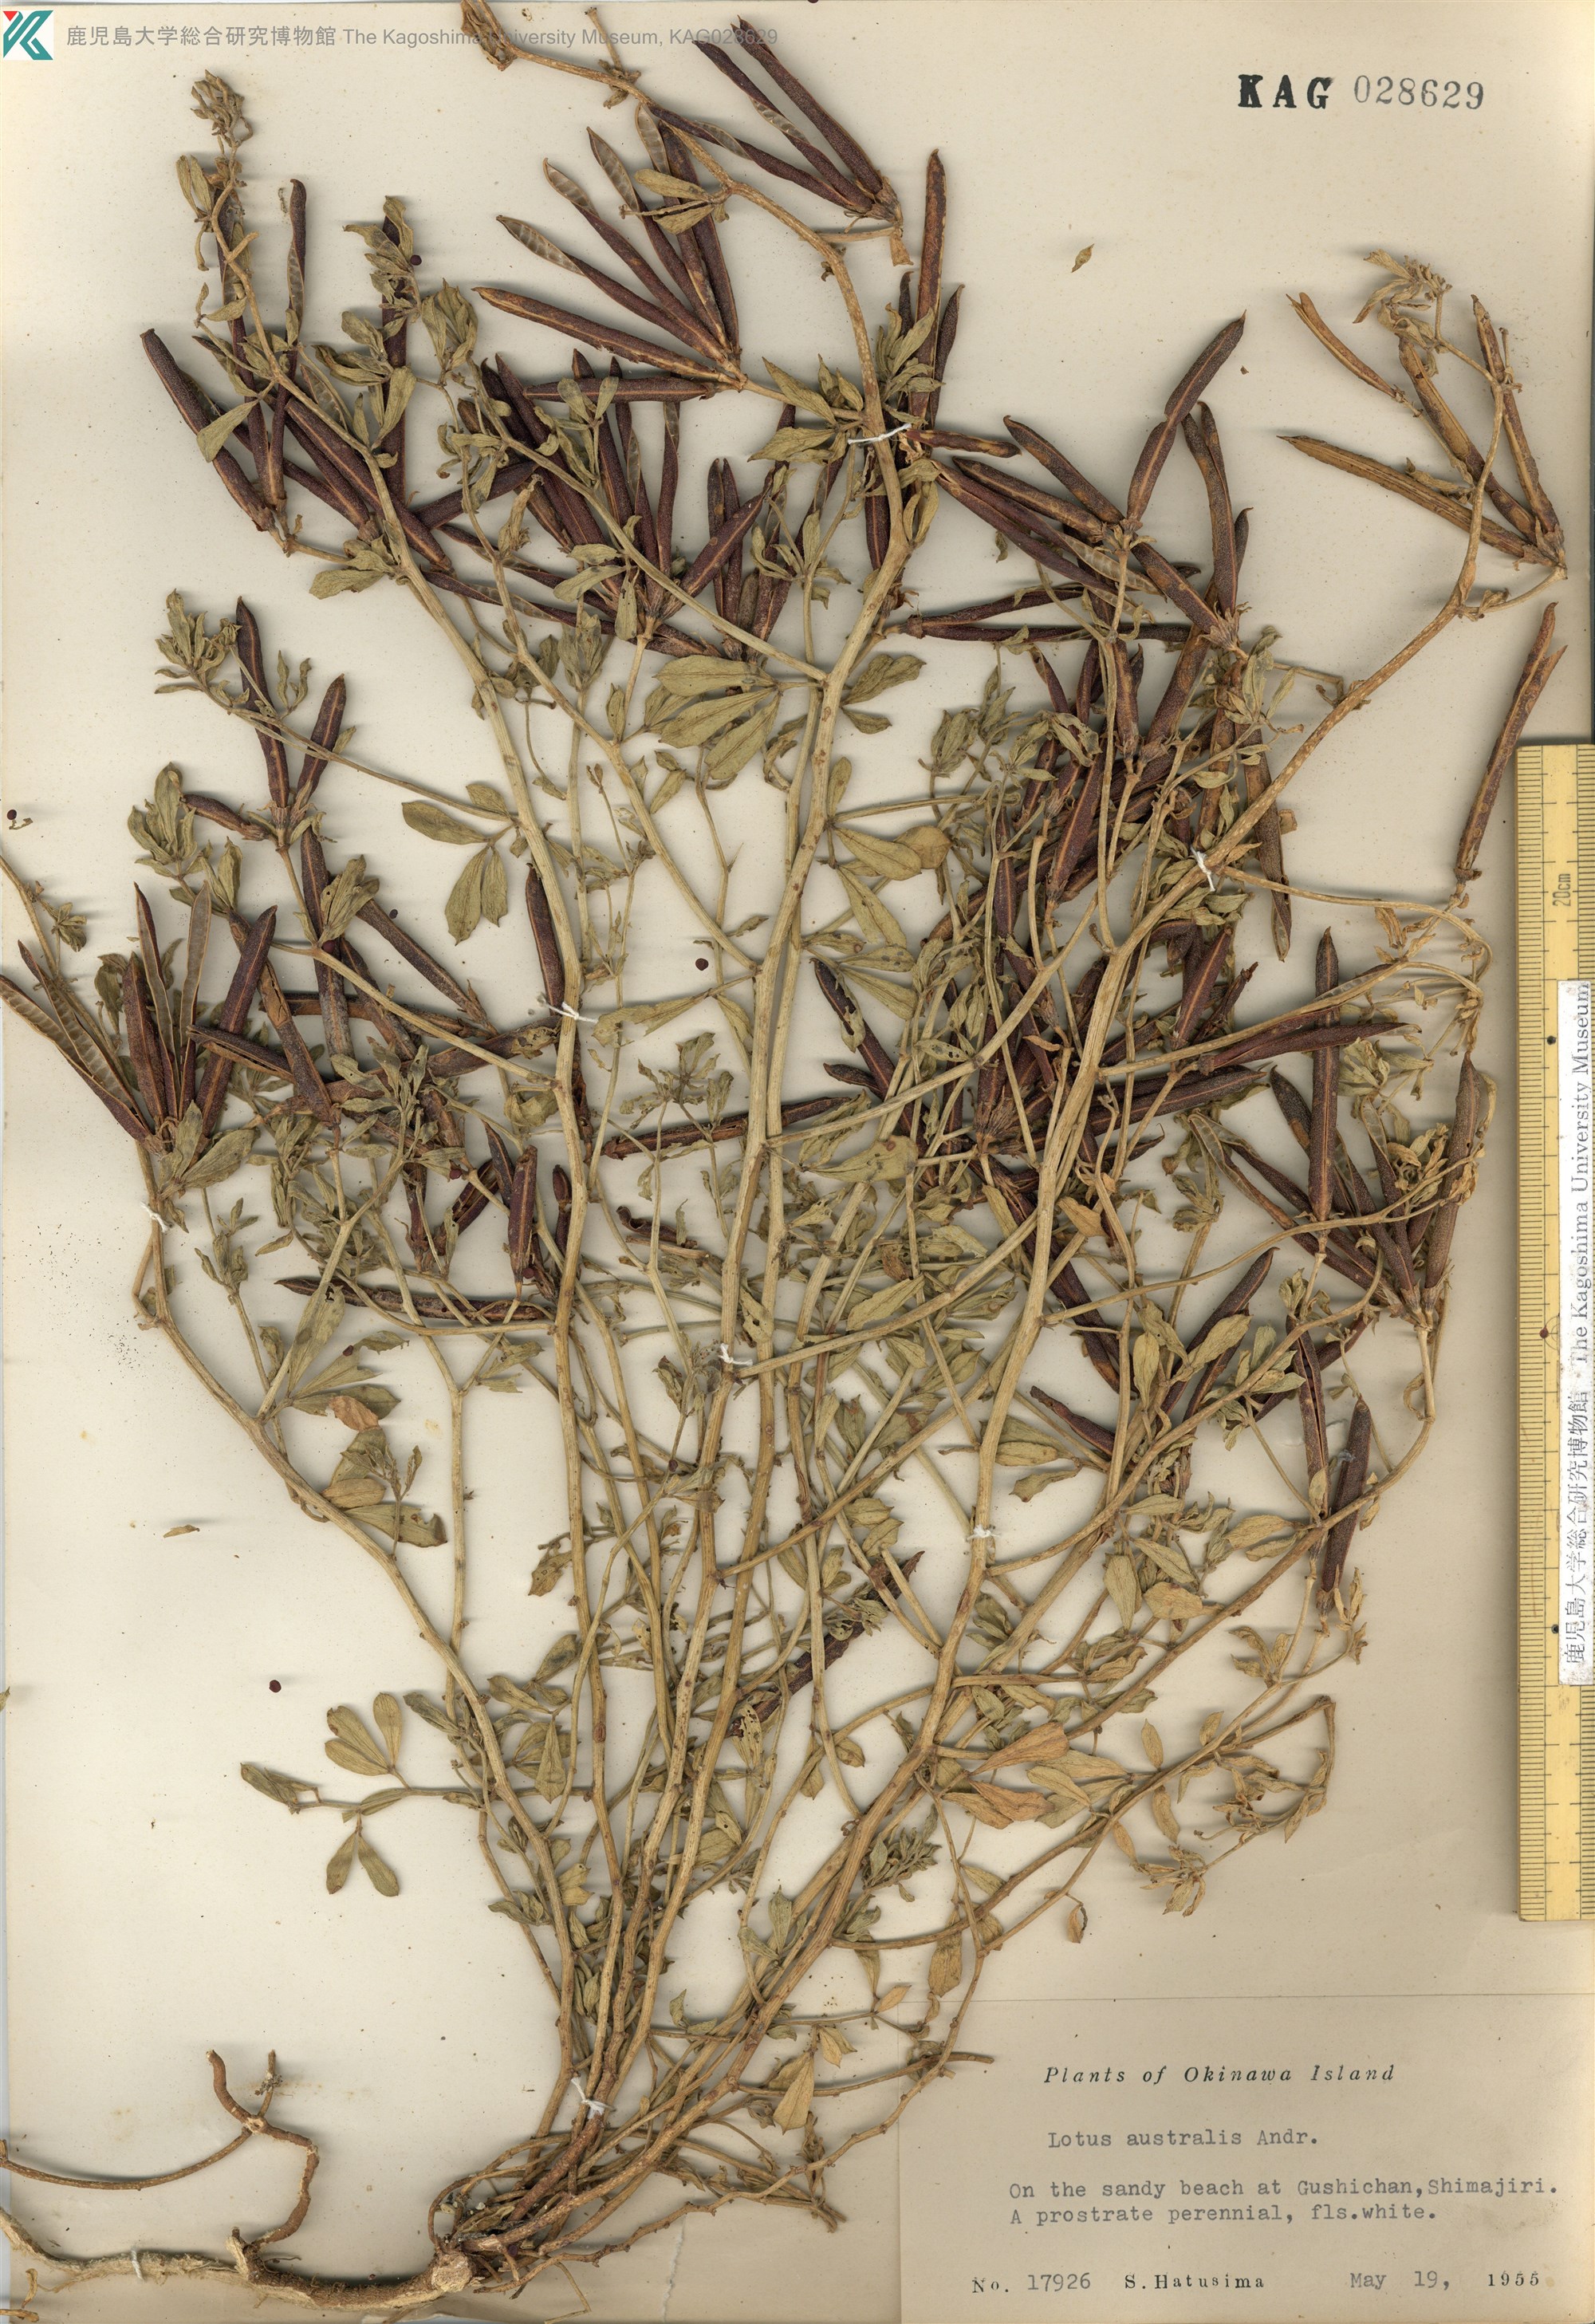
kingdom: Plantae
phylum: Tracheophyta
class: Magnoliopsida
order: Fabales
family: Fabaceae
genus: Lotus
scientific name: Lotus taitungensis
